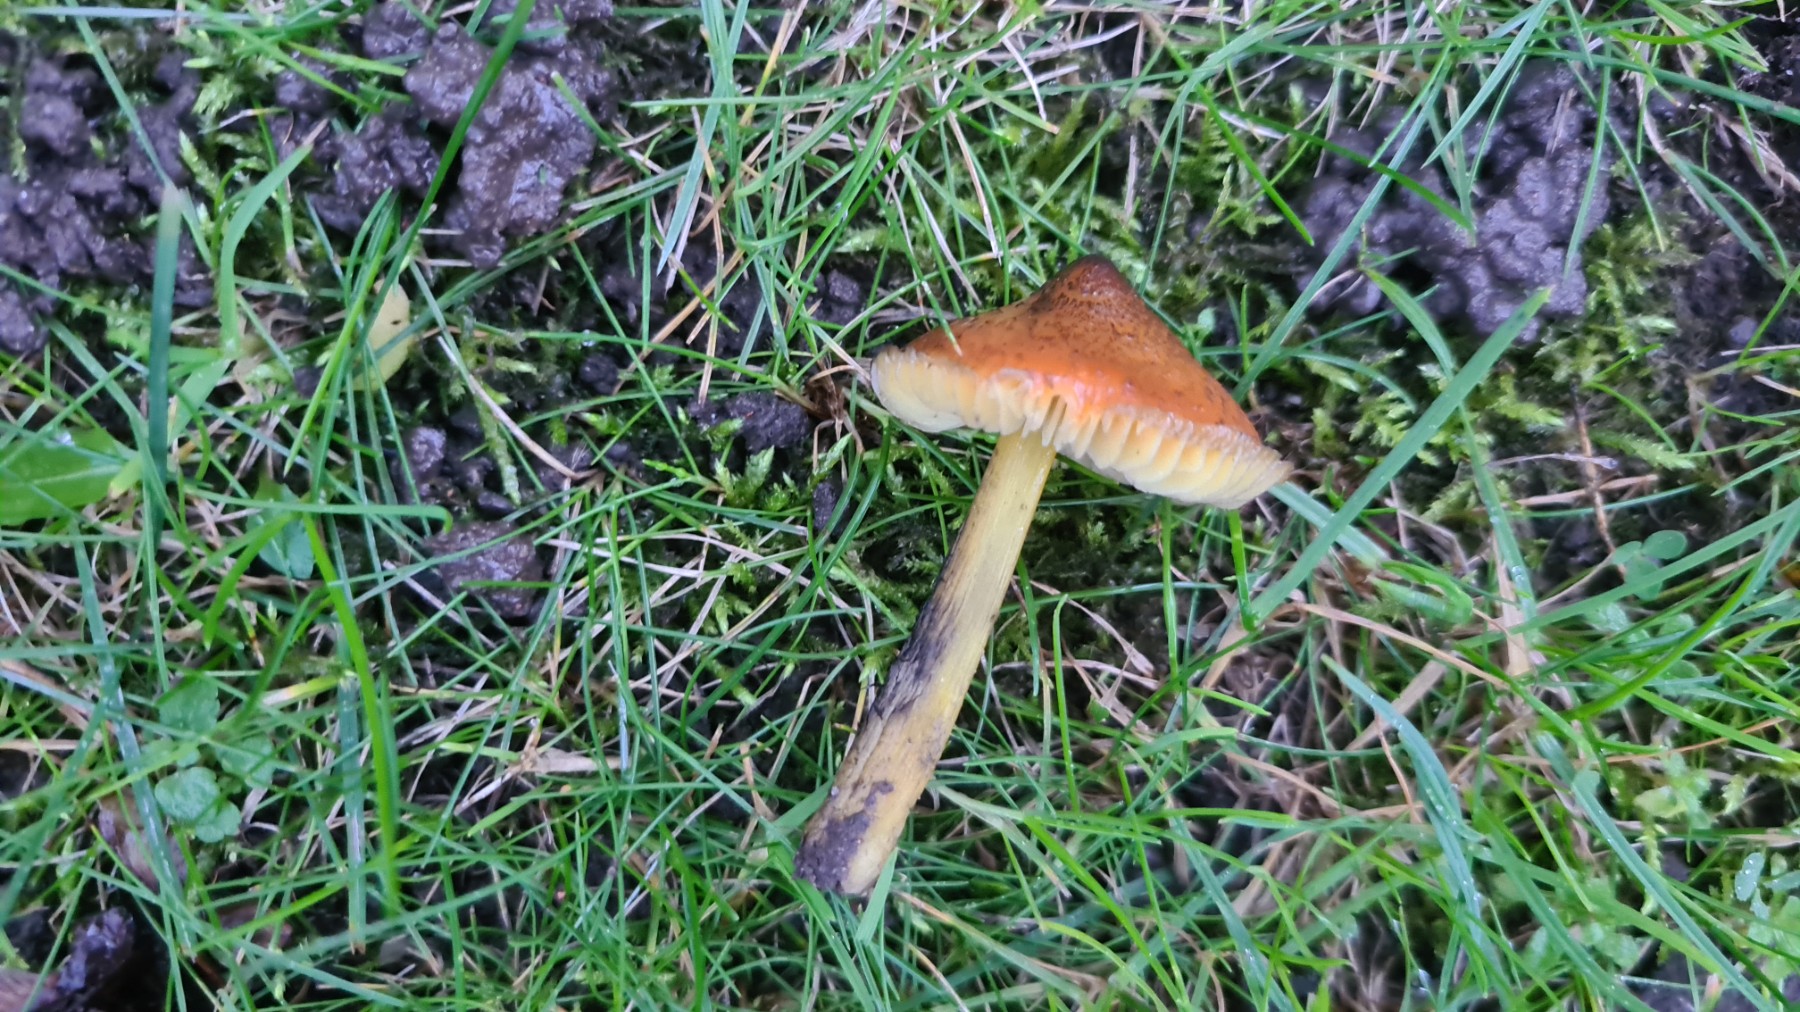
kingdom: Fungi
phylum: Basidiomycota
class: Agaricomycetes
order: Agaricales
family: Hygrophoraceae
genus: Hygrocybe
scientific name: Hygrocybe conica
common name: kegle-vokshat
